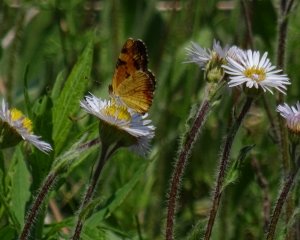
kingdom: Animalia
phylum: Arthropoda
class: Insecta
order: Lepidoptera
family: Nymphalidae
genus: Phyciodes
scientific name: Phyciodes tharos
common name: Northern Crescent
